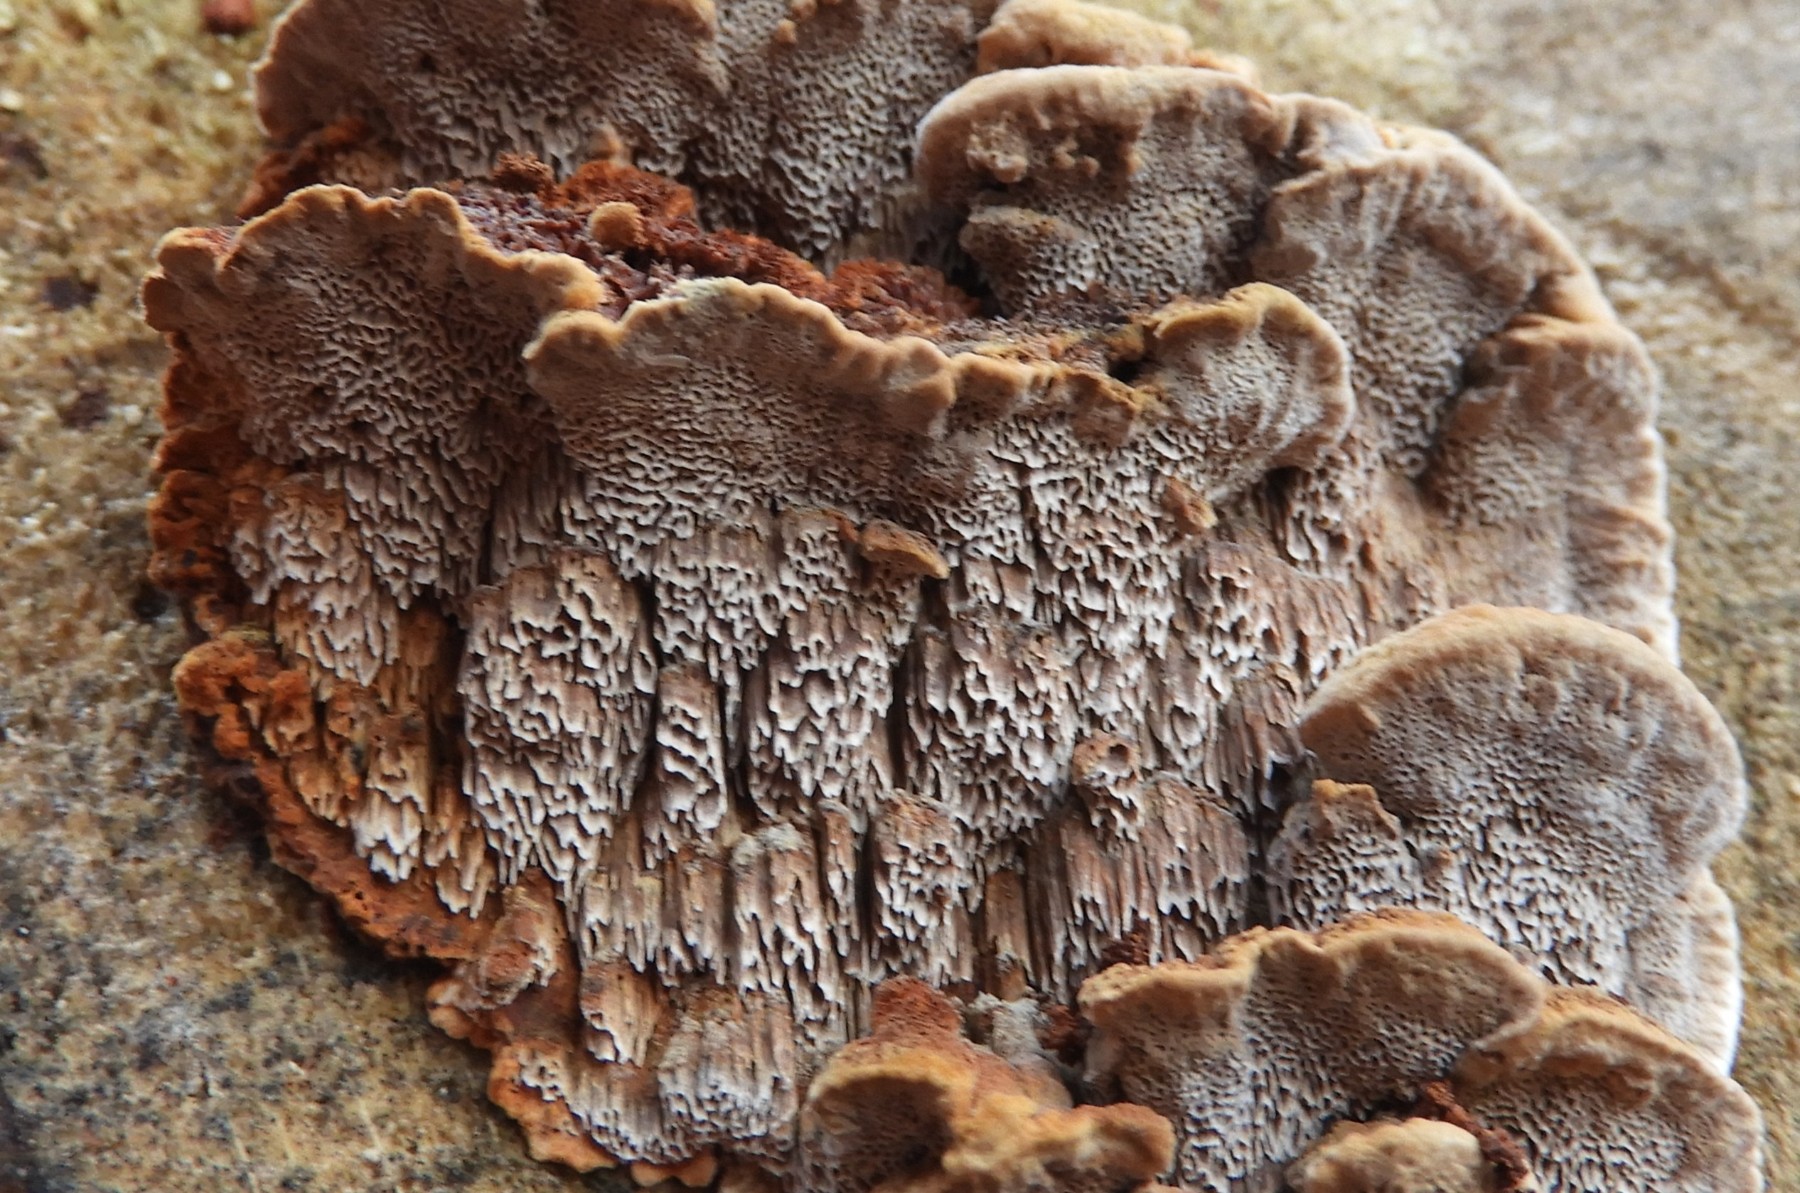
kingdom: Fungi
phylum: Basidiomycota
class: Agaricomycetes
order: Hymenochaetales
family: Hymenochaetaceae
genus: Mensularia
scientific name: Mensularia nodulosa
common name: bøge-spejlporesvamp
